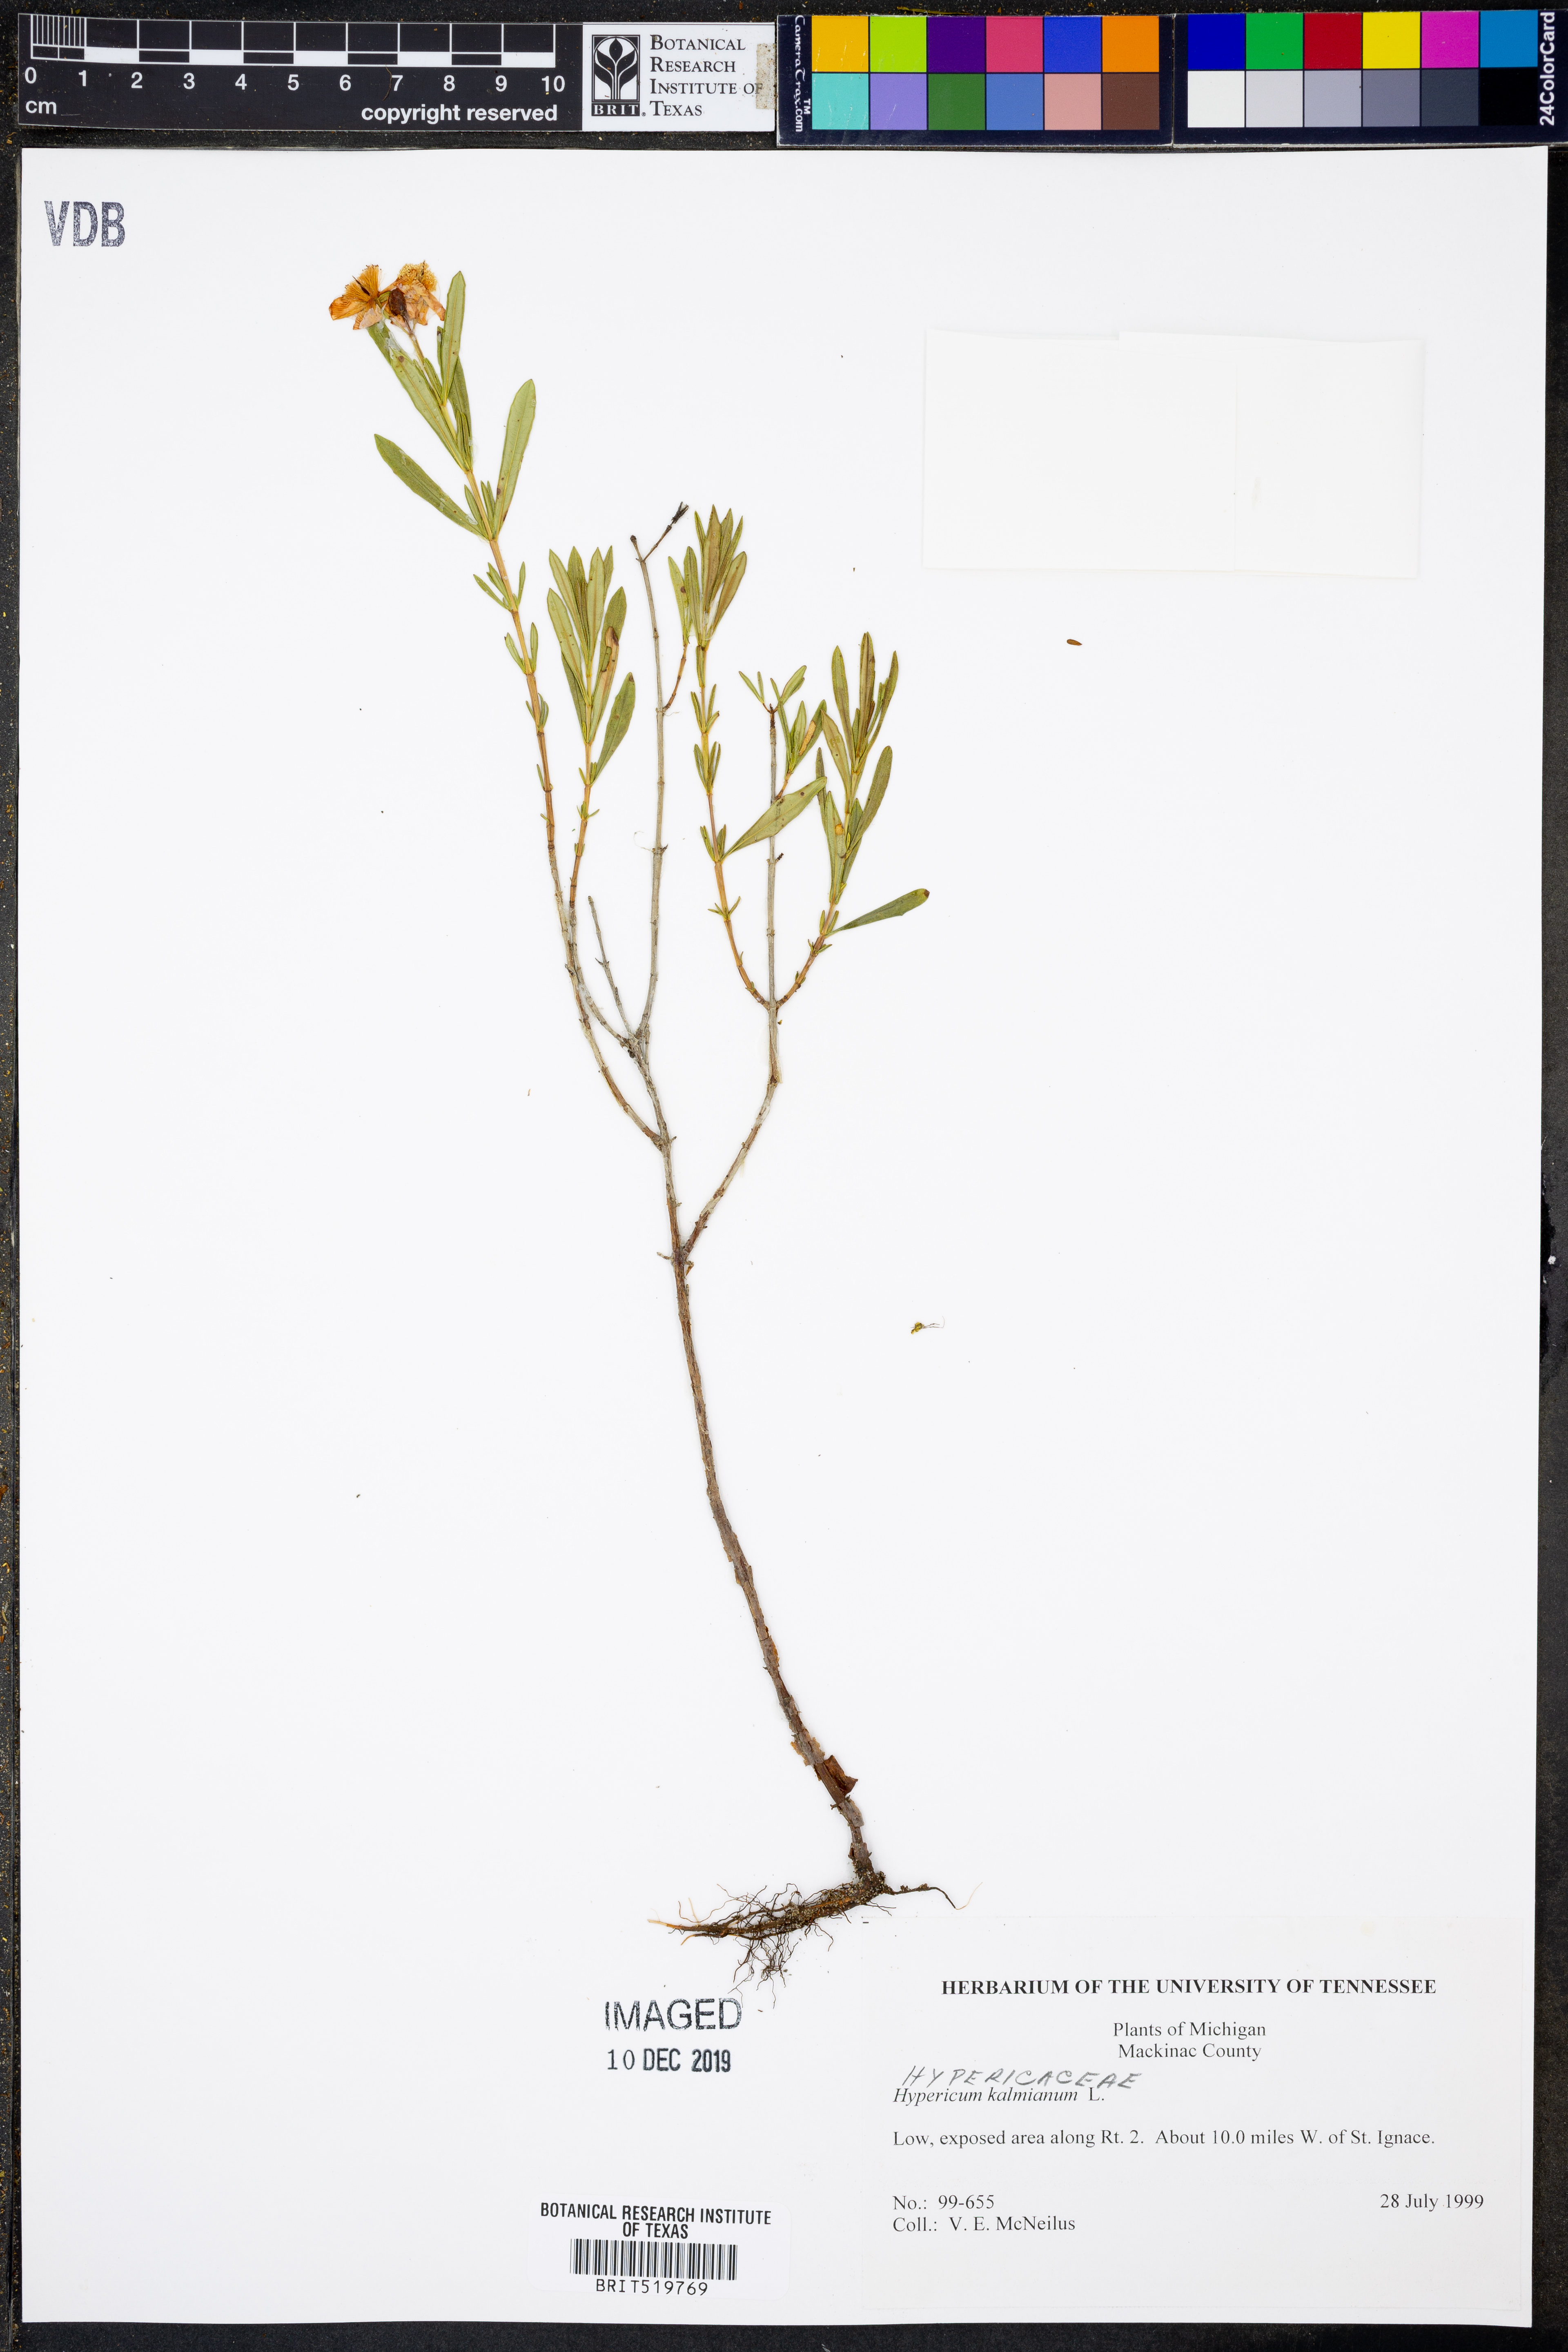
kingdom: Plantae
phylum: Tracheophyta
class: Magnoliopsida
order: Malpighiales
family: Hypericaceae
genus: Hypericum
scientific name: Hypericum kalmianum
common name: Kalm's st. john's-wort
